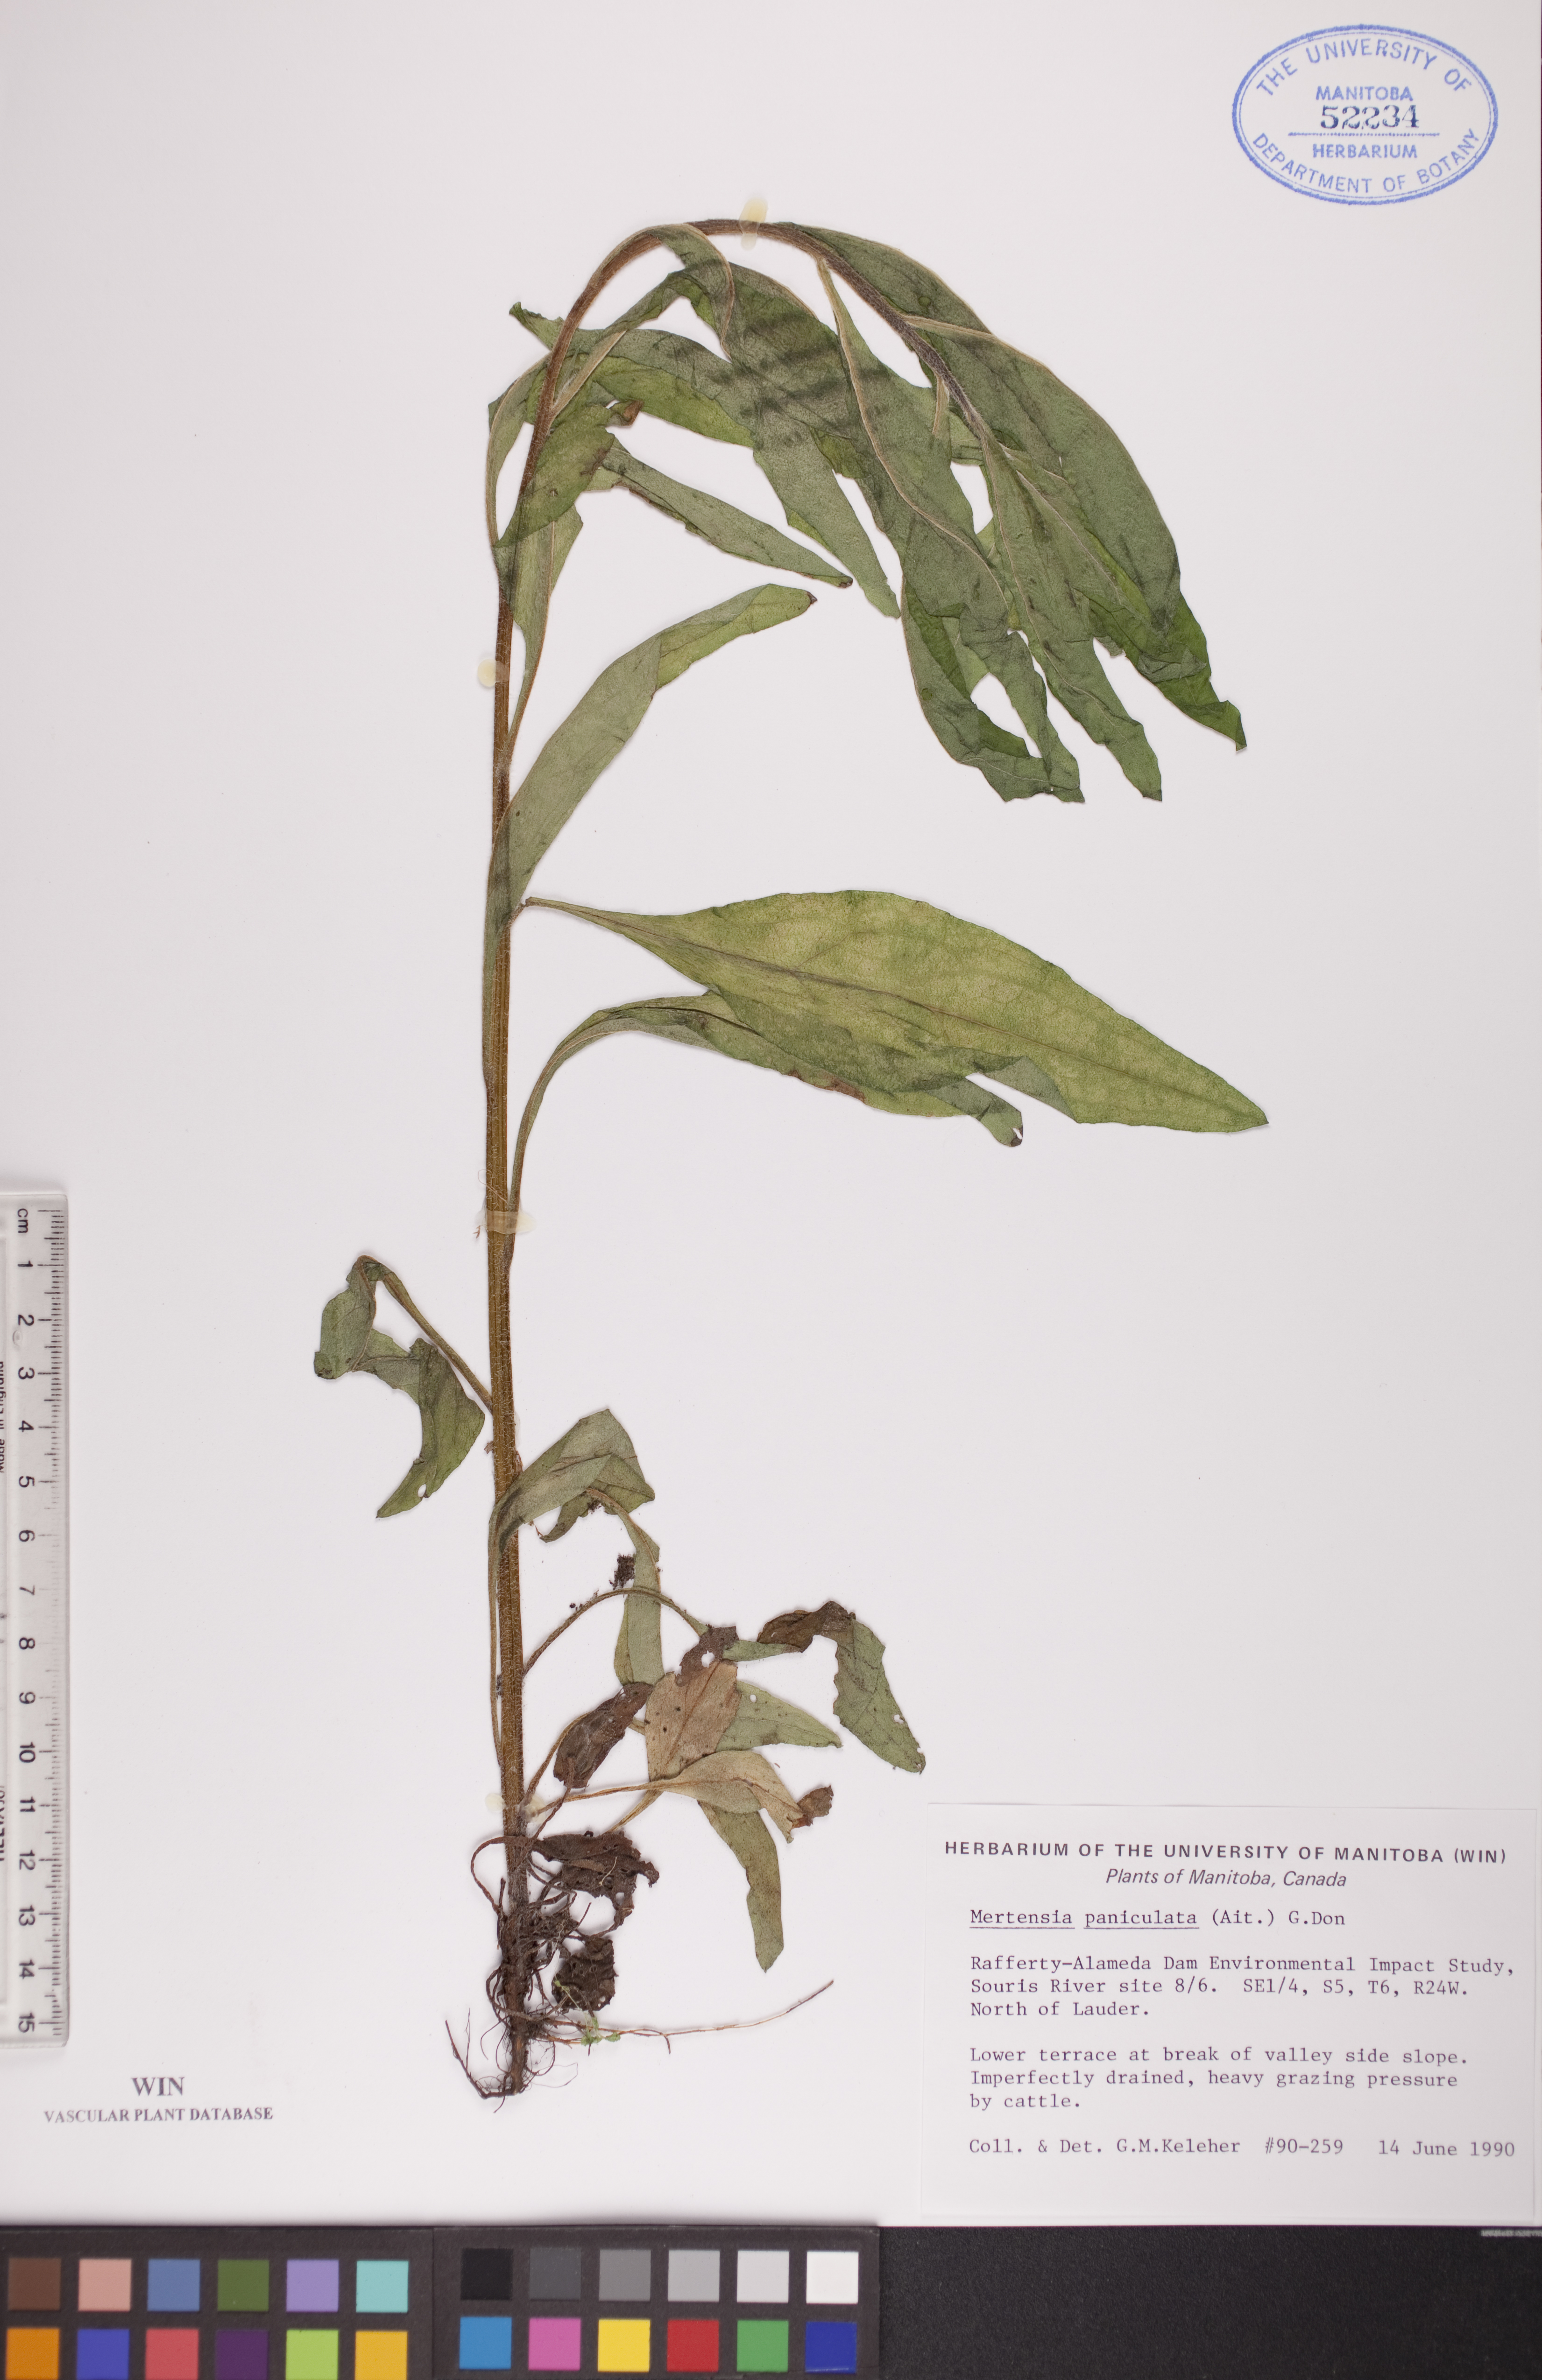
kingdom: Plantae
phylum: Tracheophyta
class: Magnoliopsida
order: Boraginales
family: Boraginaceae
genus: Mertensia
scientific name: Mertensia paniculata
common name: Panicled bluebells
